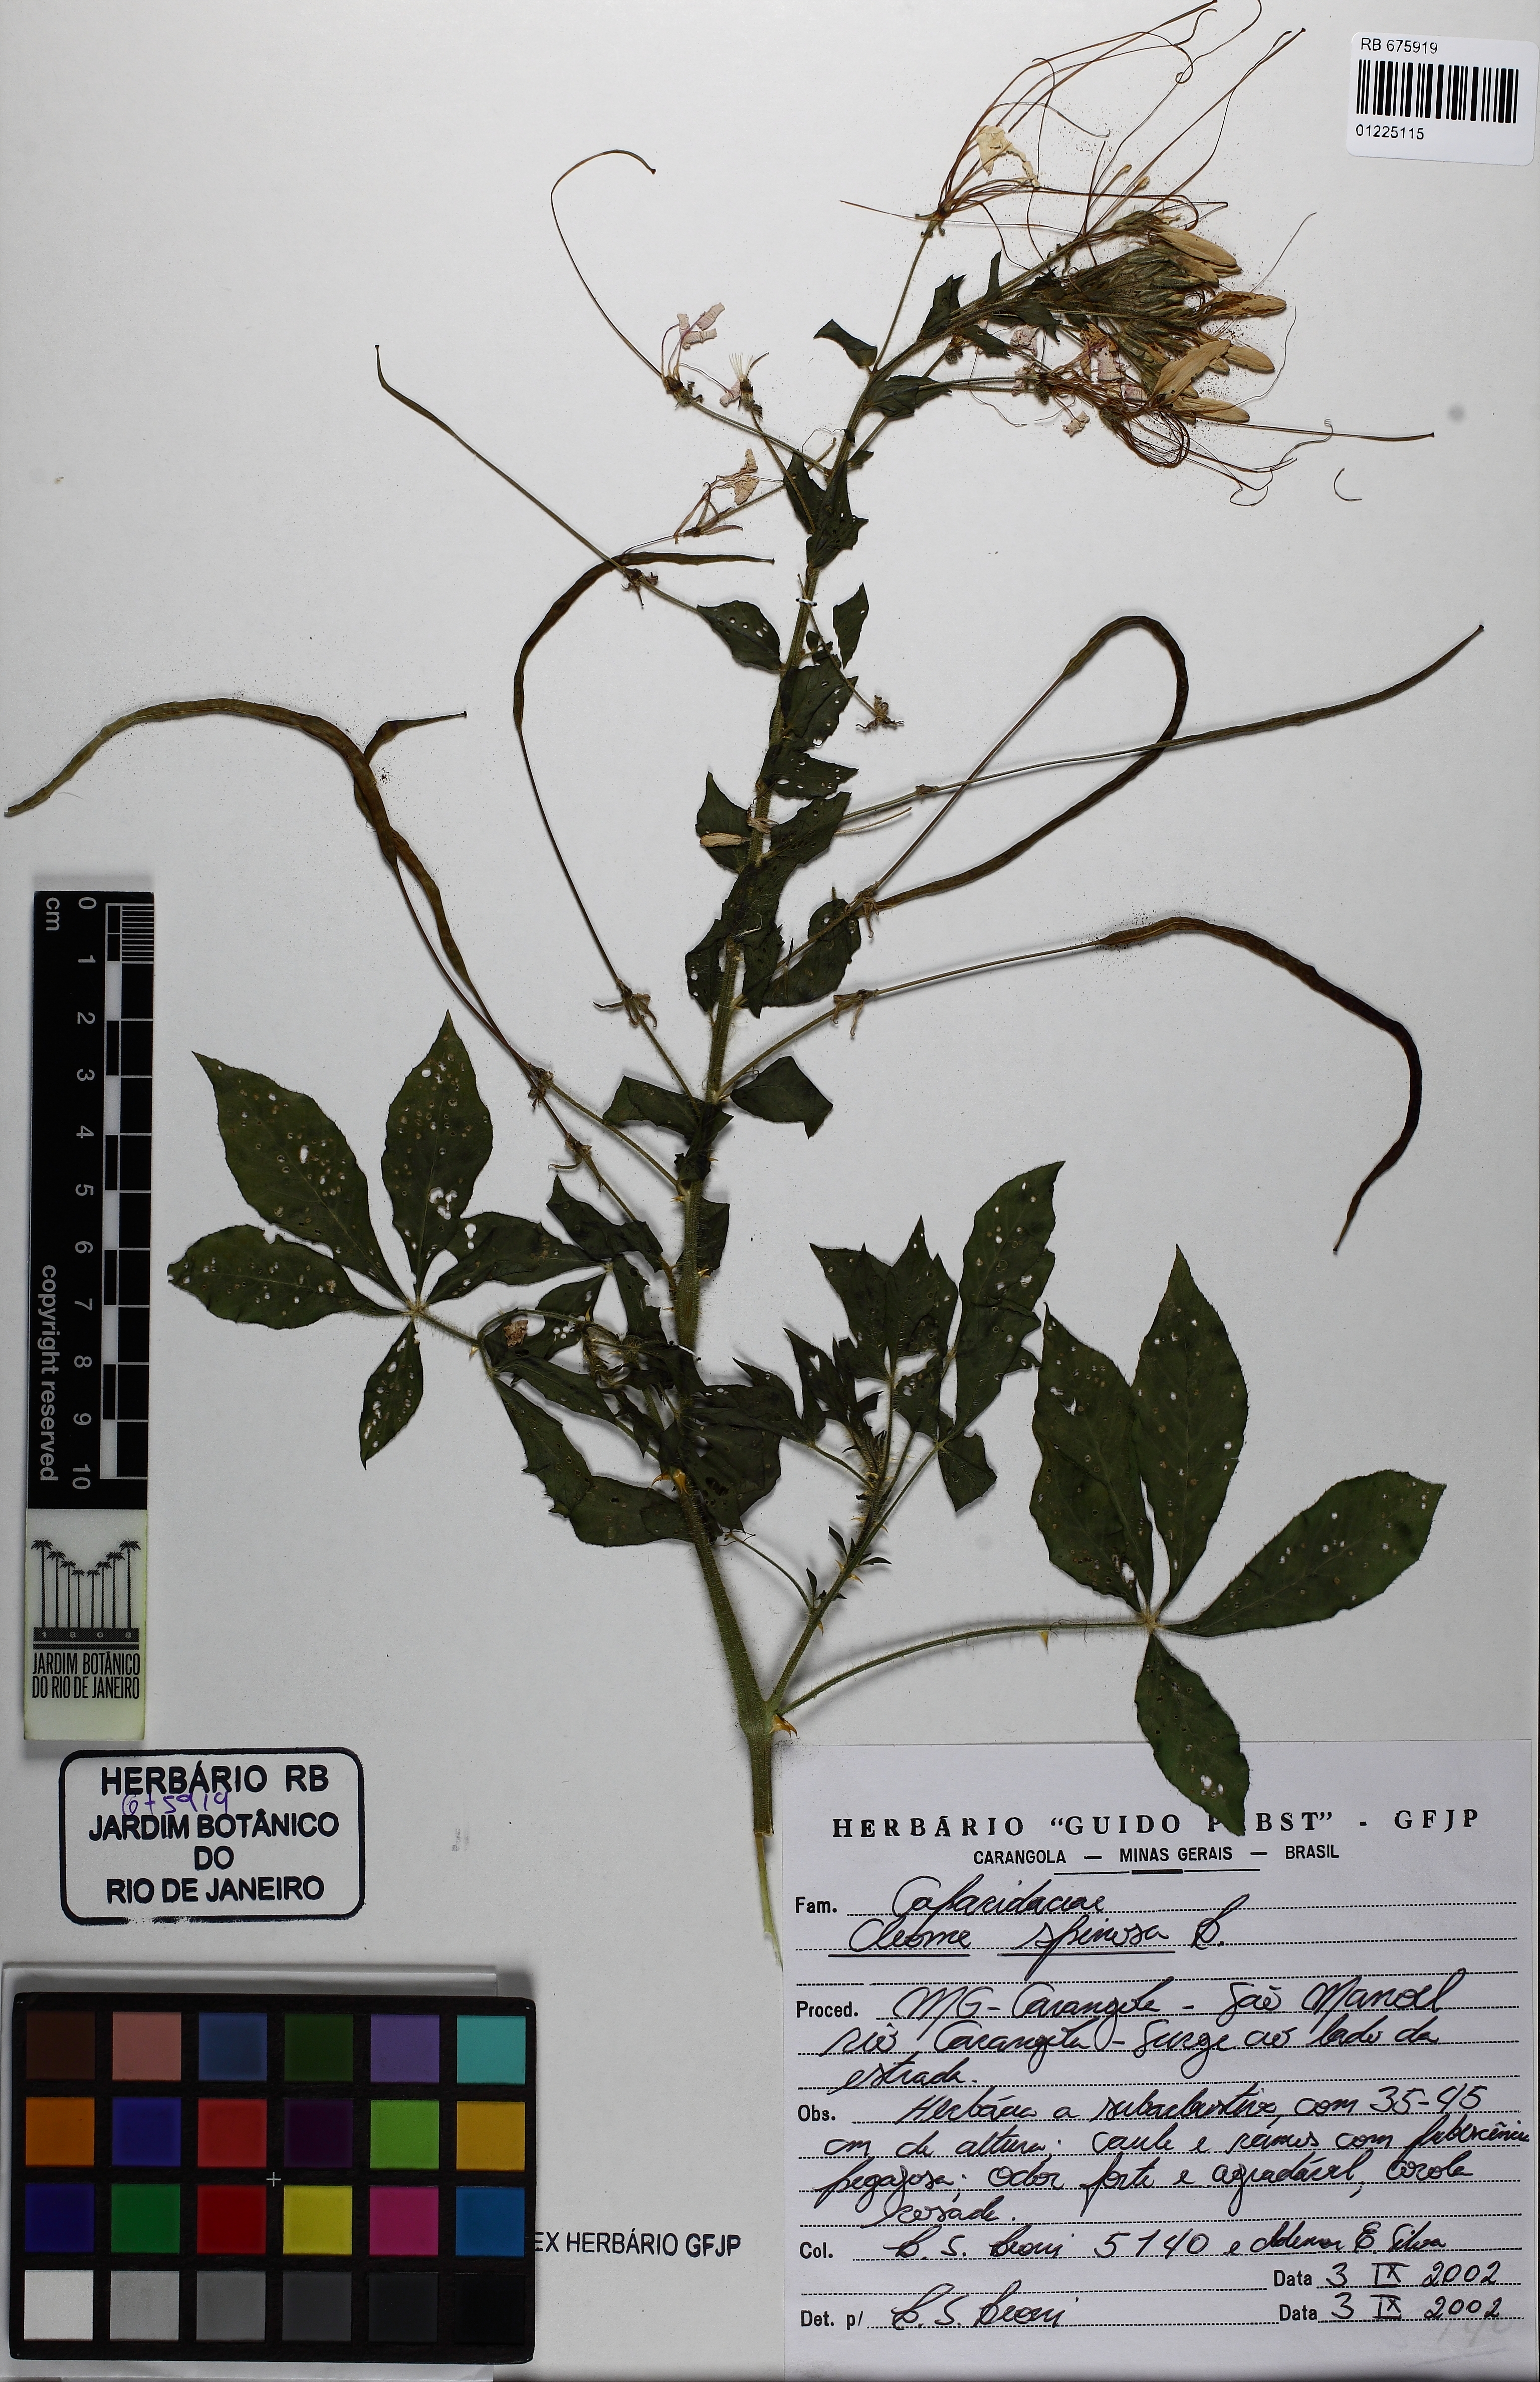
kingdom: Plantae
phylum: Tracheophyta
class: Magnoliopsida
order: Brassicales
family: Cleomaceae
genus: Tarenaya
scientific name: Tarenaya spinosa
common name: Spiny spiderflower
